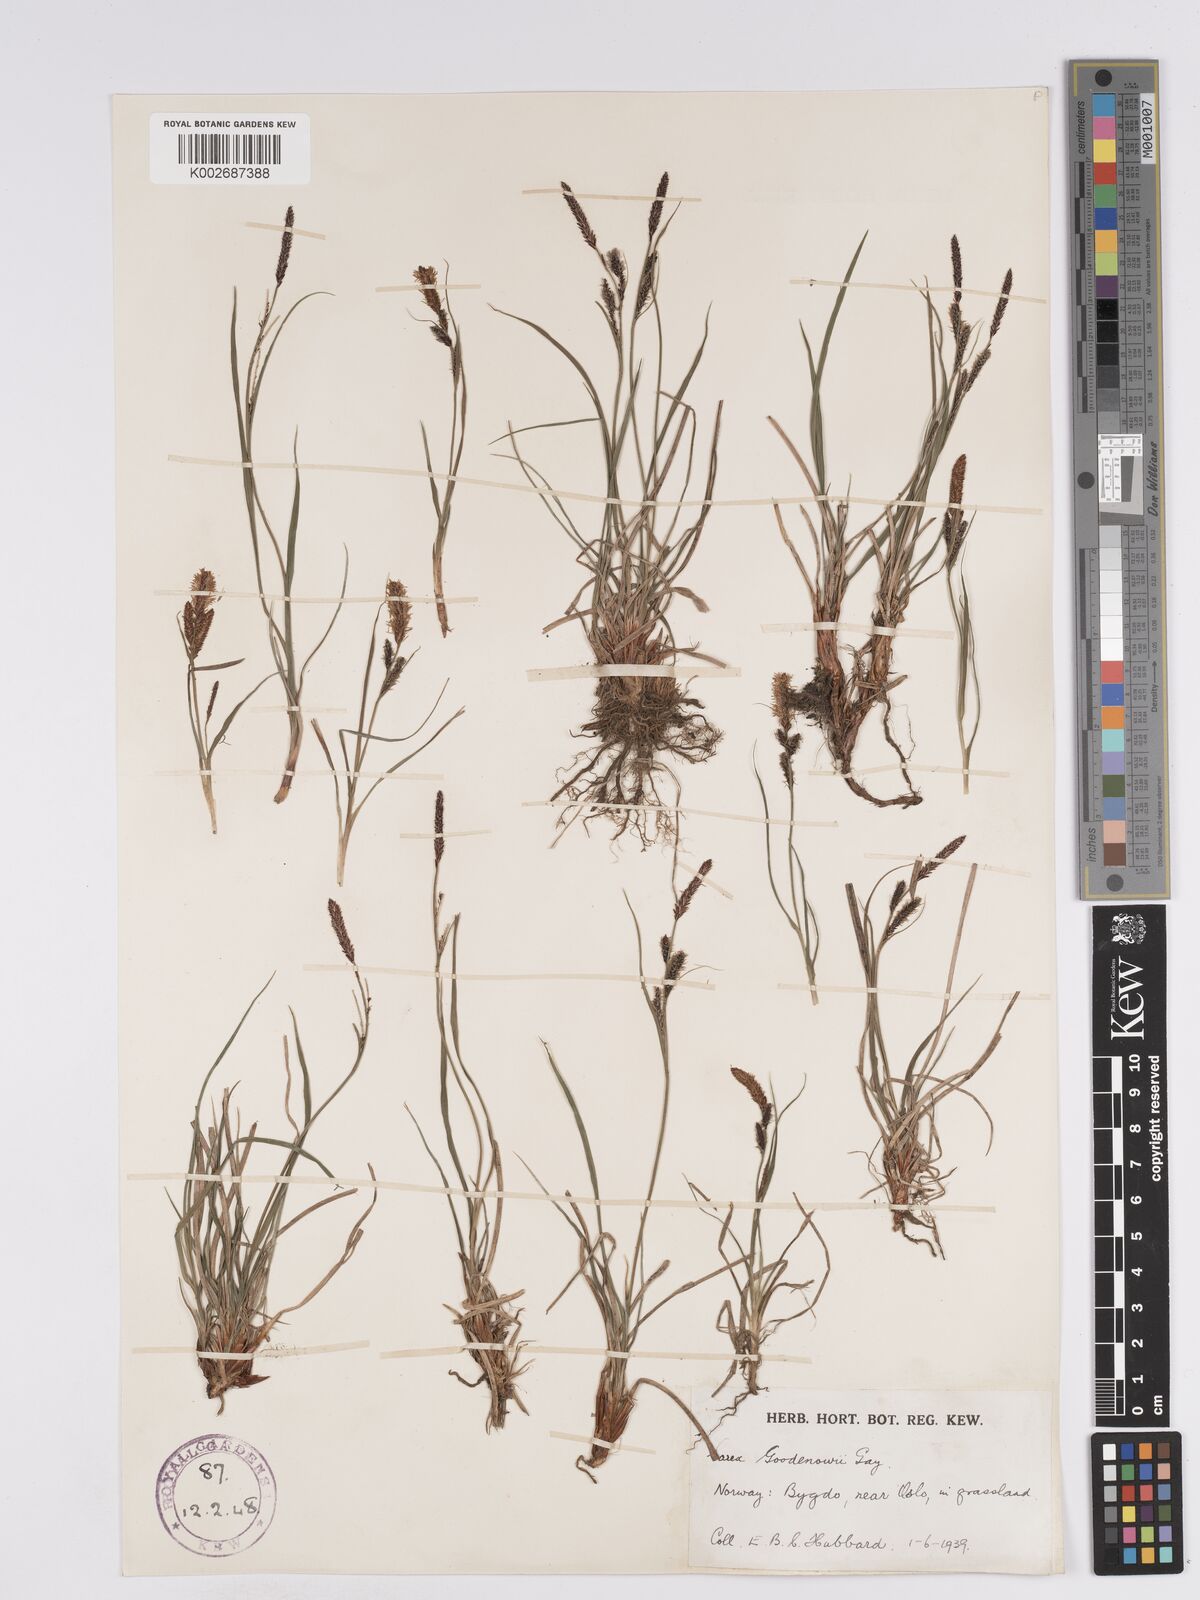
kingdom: Plantae
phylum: Tracheophyta
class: Liliopsida
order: Poales
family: Cyperaceae
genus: Carex
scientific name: Carex nigra
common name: Common sedge
